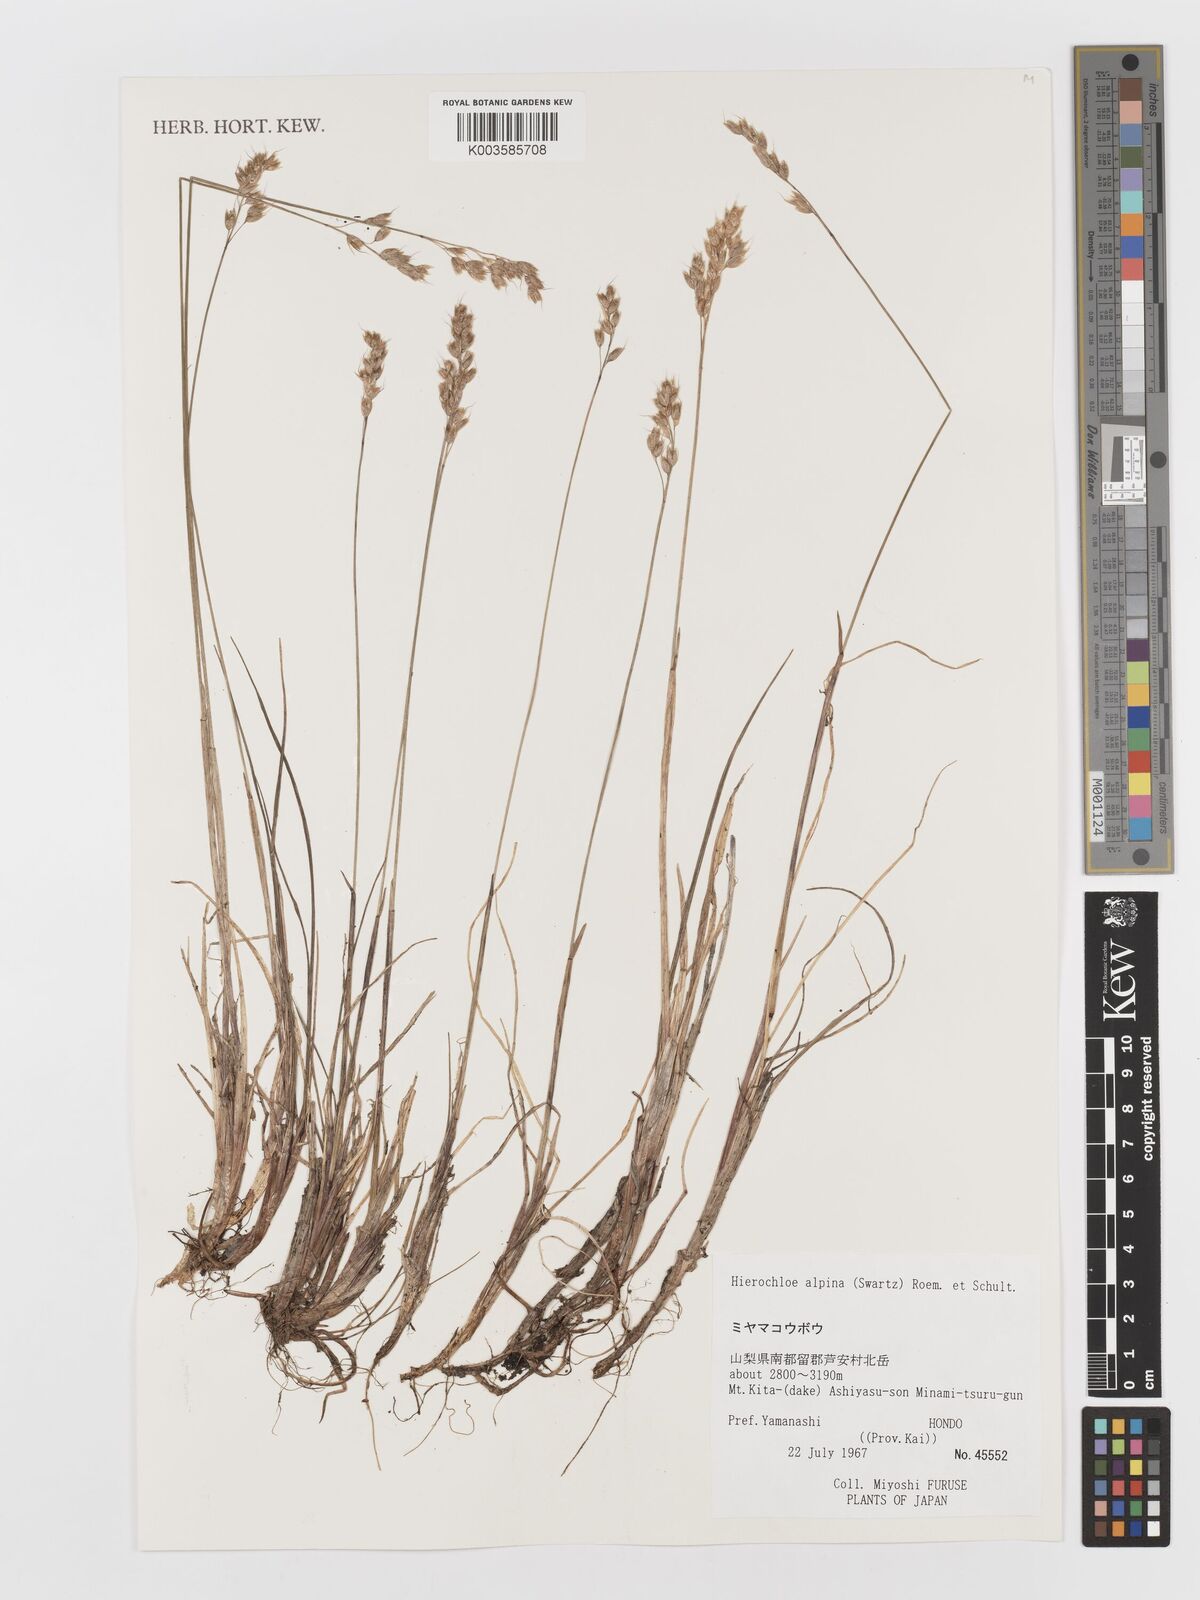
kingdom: Plantae
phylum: Tracheophyta
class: Liliopsida
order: Poales
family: Poaceae
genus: Anthoxanthum
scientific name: Anthoxanthum monticola
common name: Alpine sweetgrass
